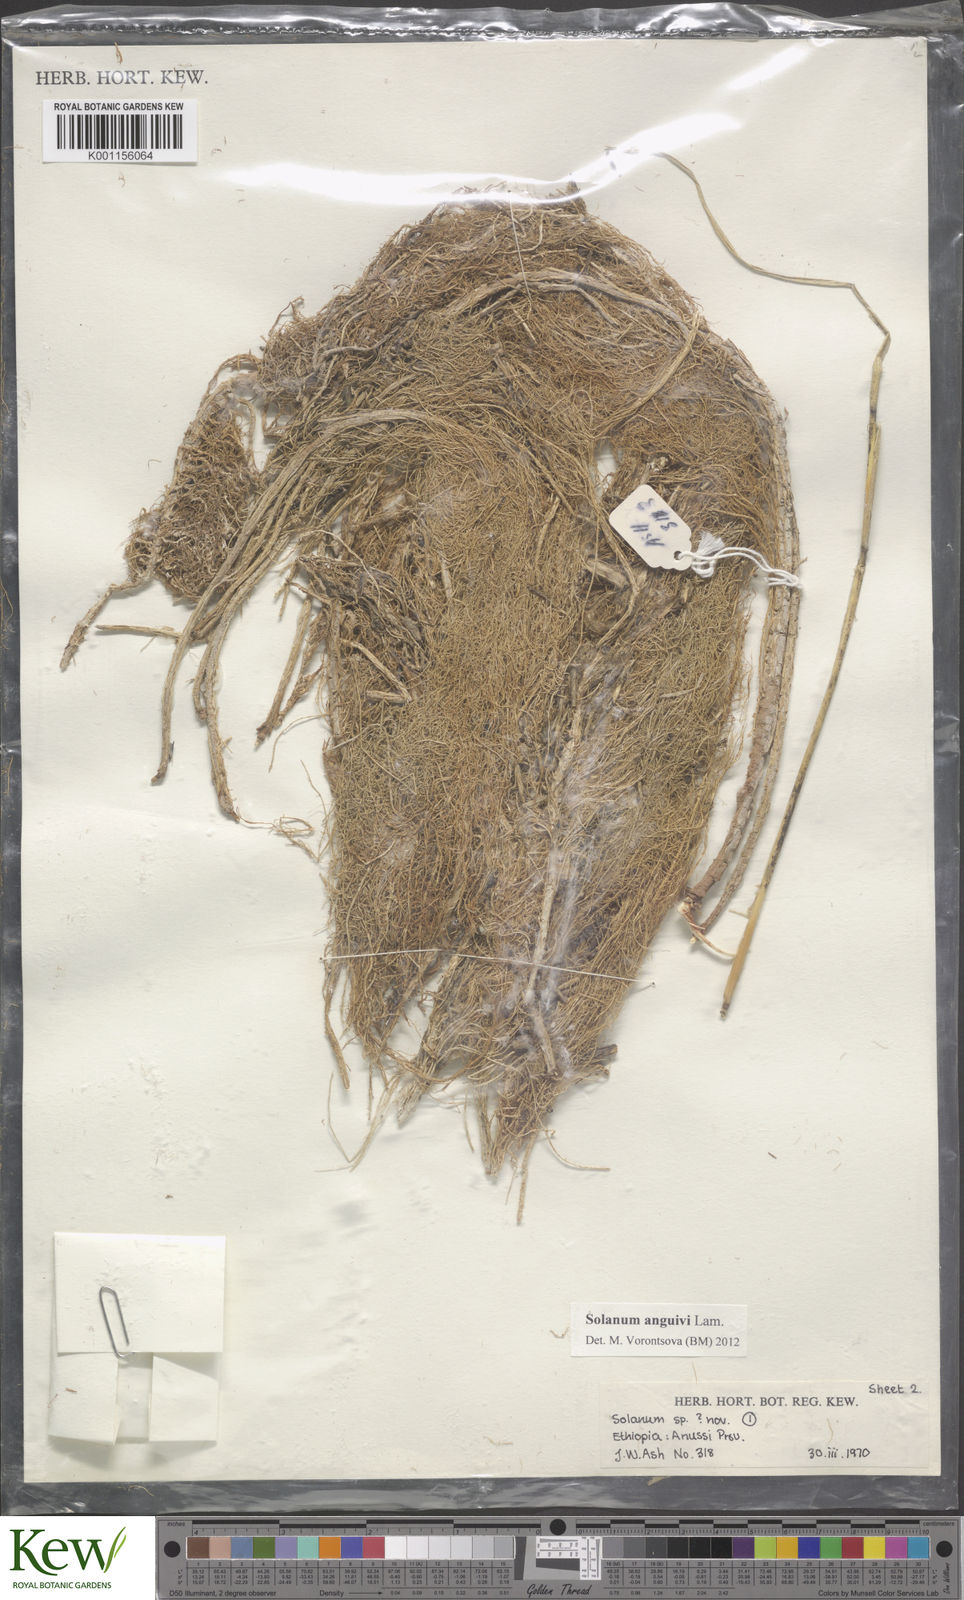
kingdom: Plantae
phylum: Tracheophyta
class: Magnoliopsida
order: Solanales
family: Solanaceae
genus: Solanum
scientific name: Solanum
